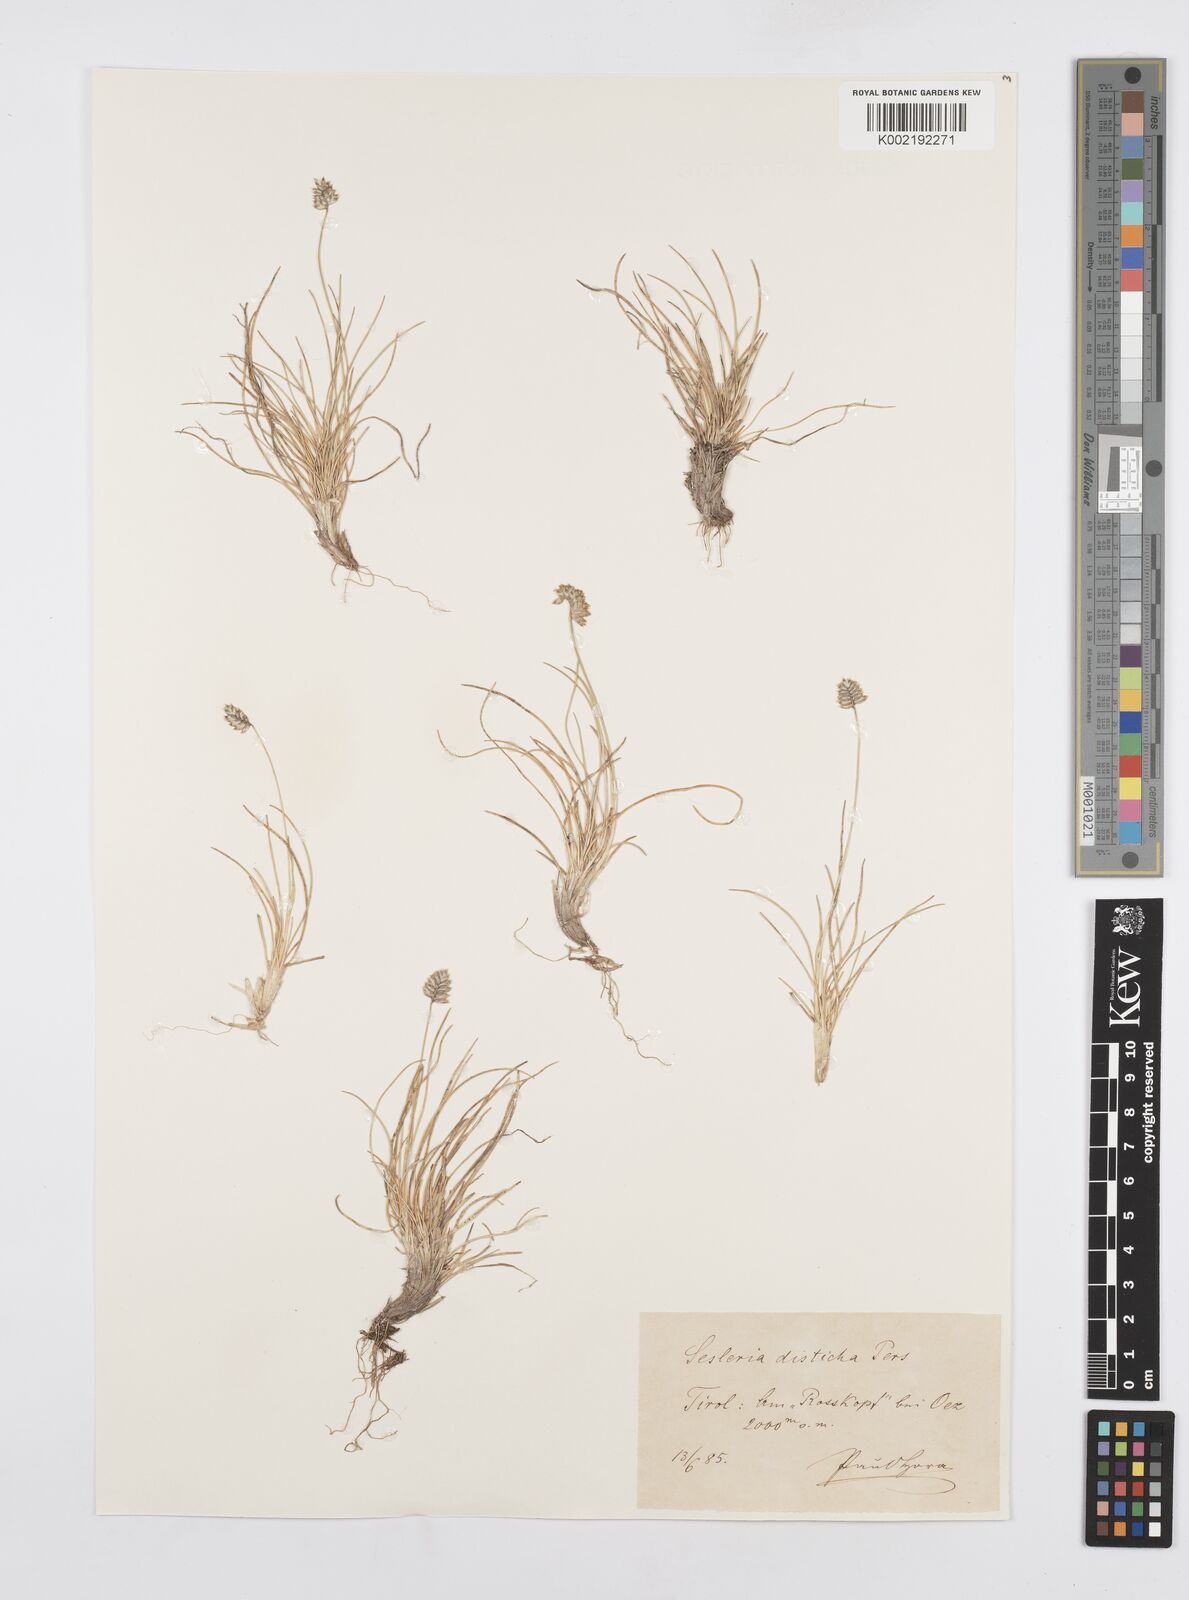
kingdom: Plantae
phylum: Tracheophyta
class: Liliopsida
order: Poales
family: Poaceae
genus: Oreochloa
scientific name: Oreochloa disticha
